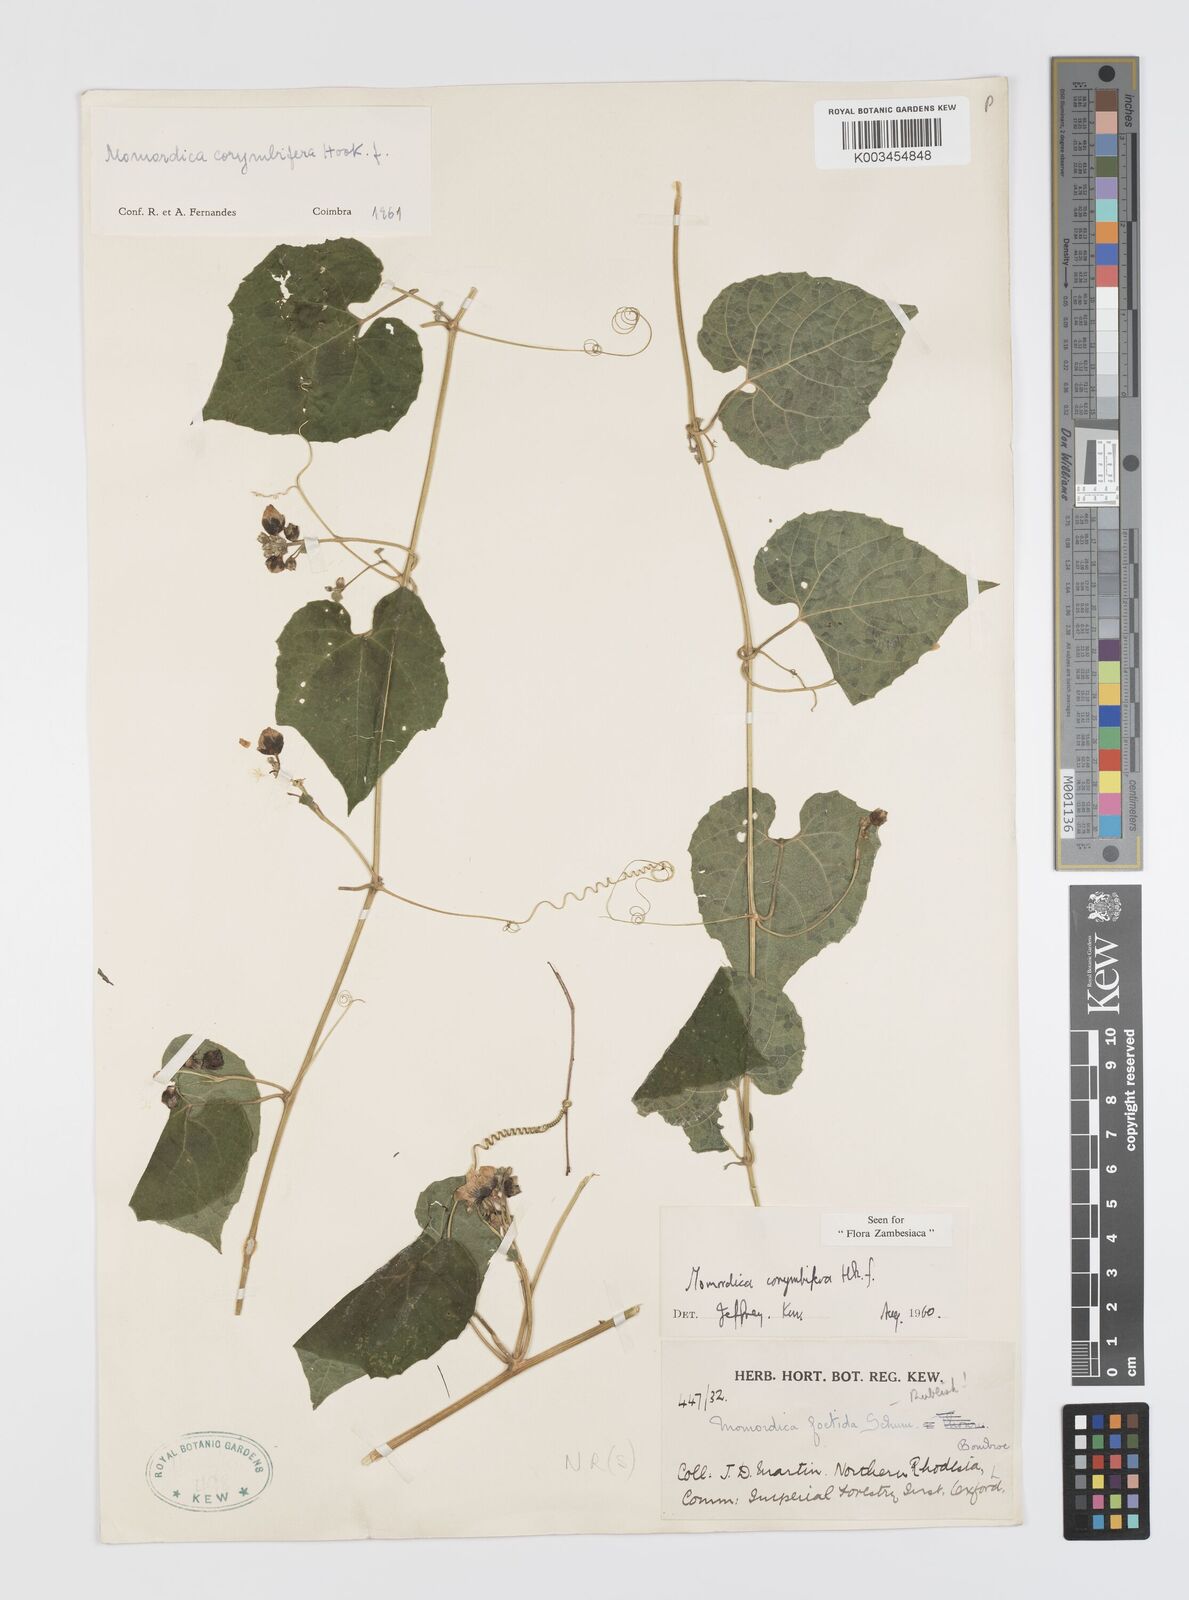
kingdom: Plantae
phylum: Tracheophyta
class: Magnoliopsida
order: Cucurbitales
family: Cucurbitaceae
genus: Momordica
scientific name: Momordica corymbifera
